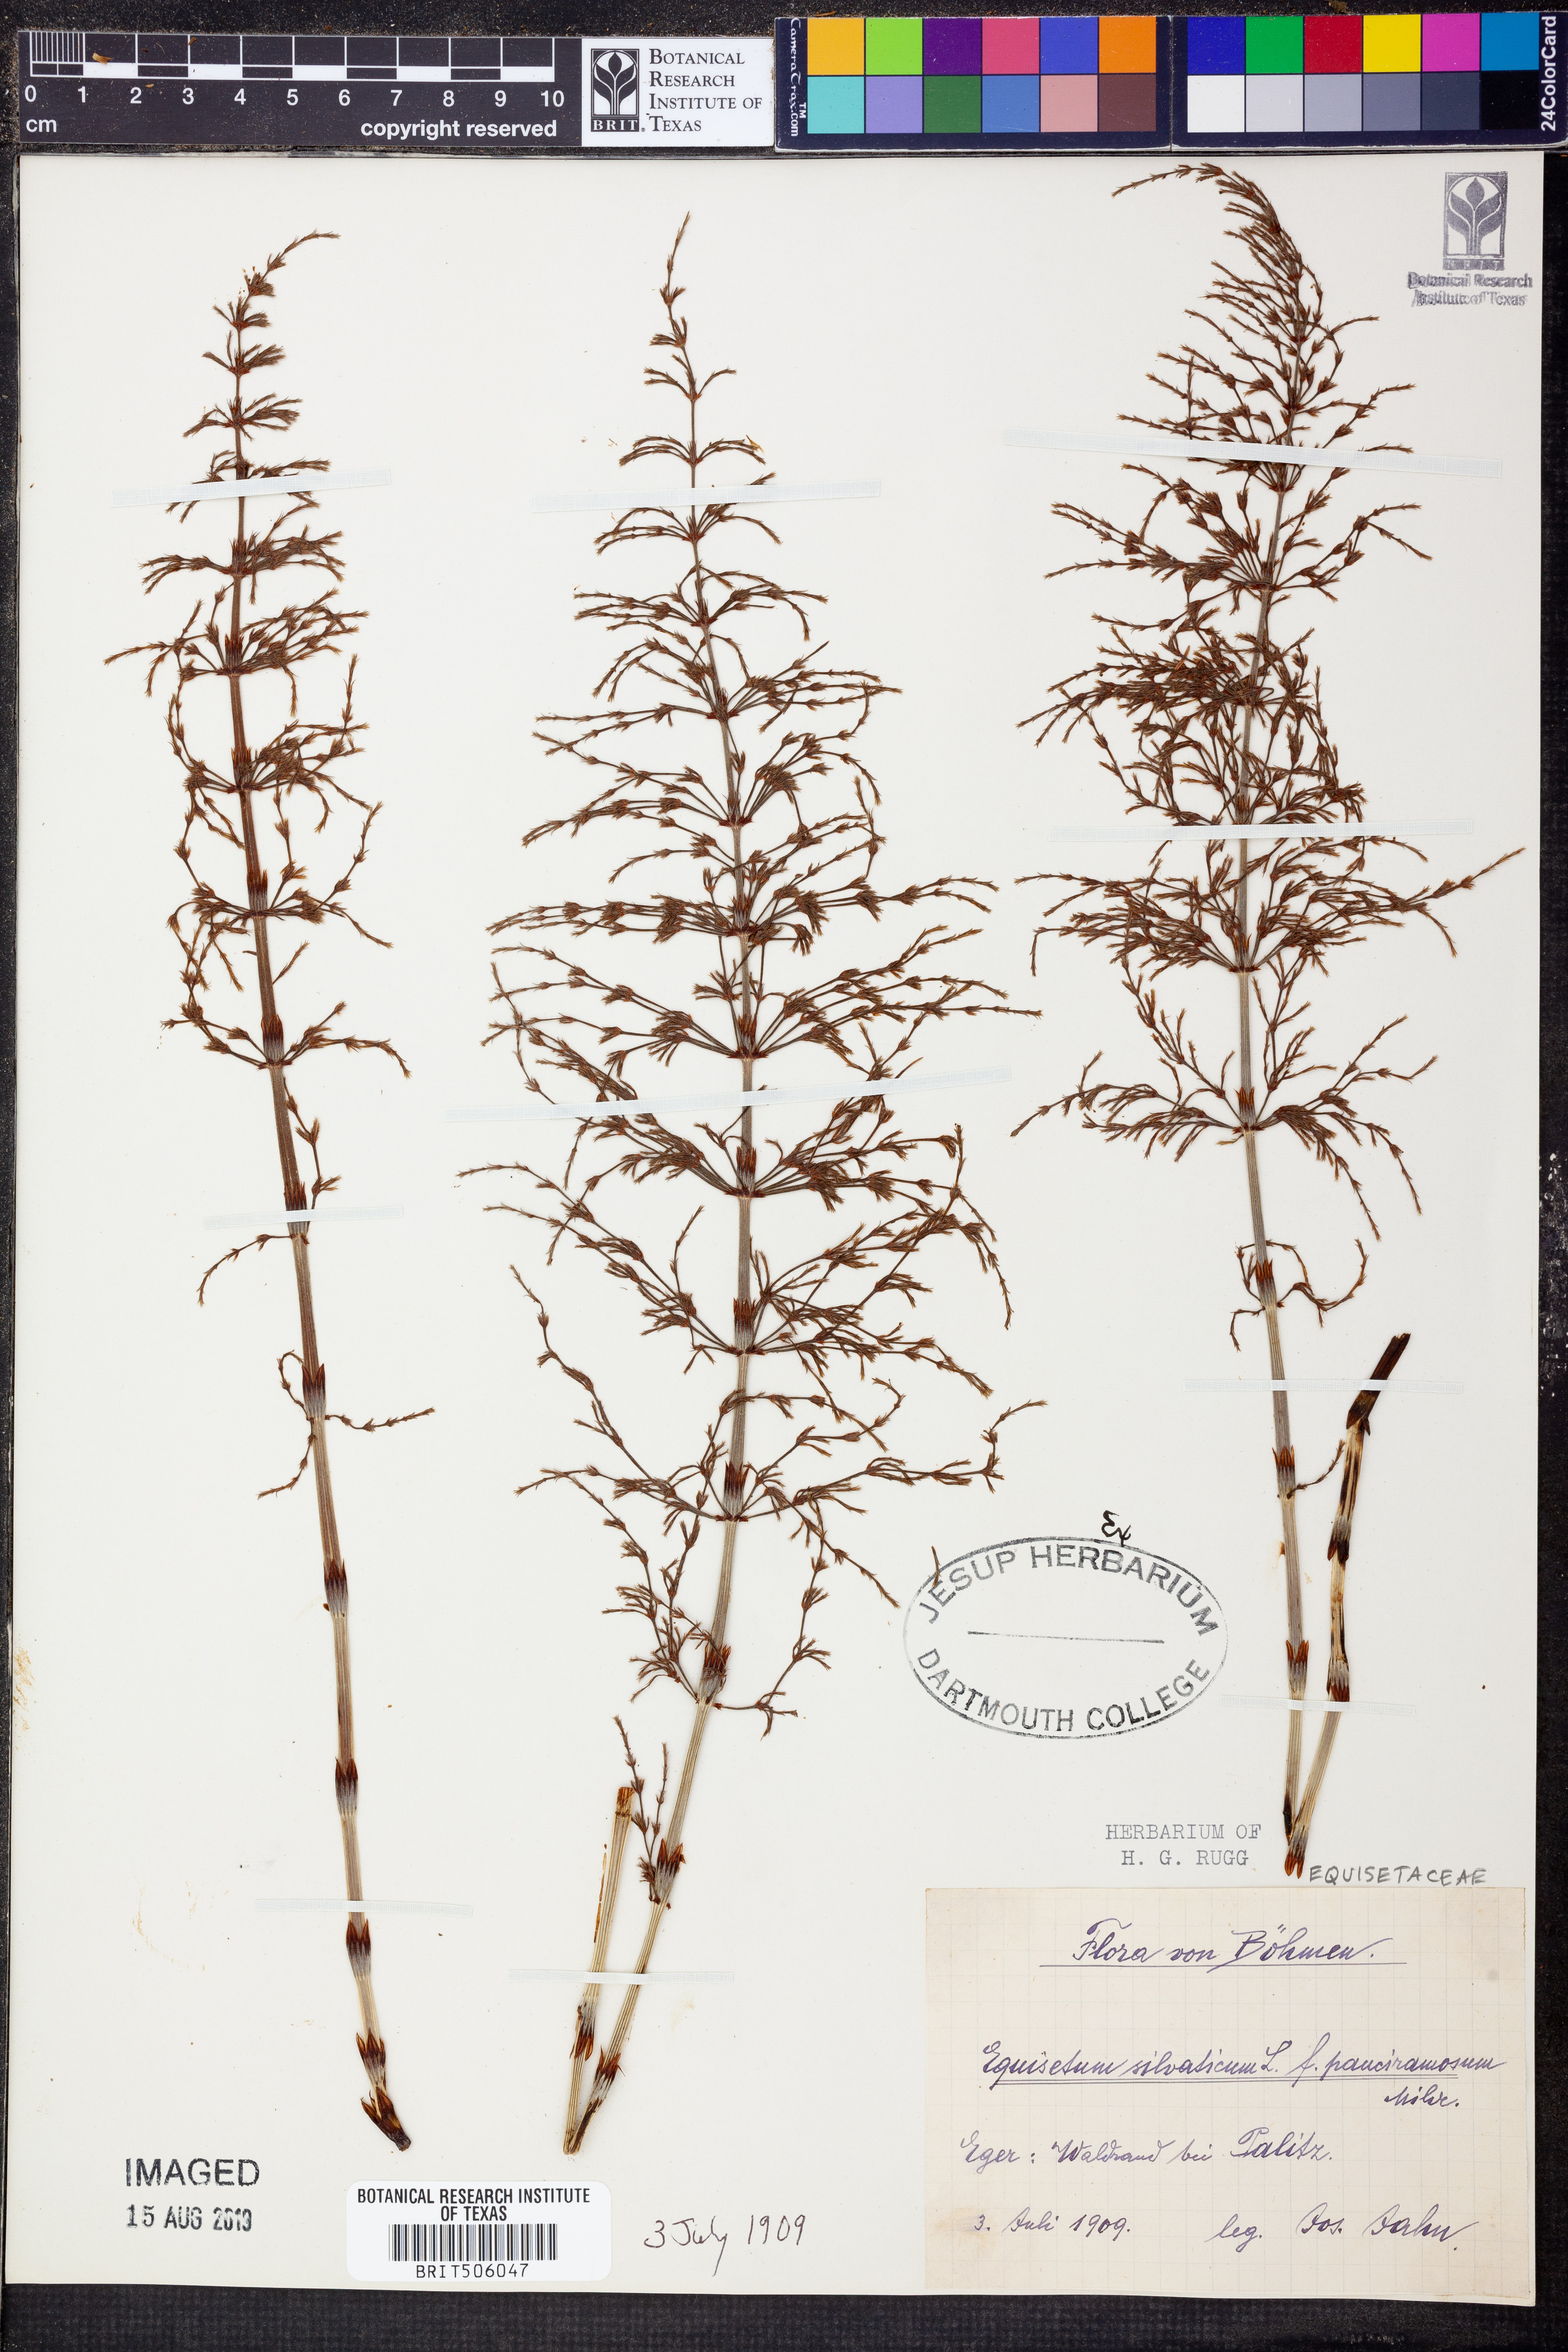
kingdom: Plantae
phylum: Tracheophyta
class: Polypodiopsida
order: Equisetales
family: Equisetaceae
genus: Equisetum
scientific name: Equisetum sylvaticum
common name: Wood horsetail
